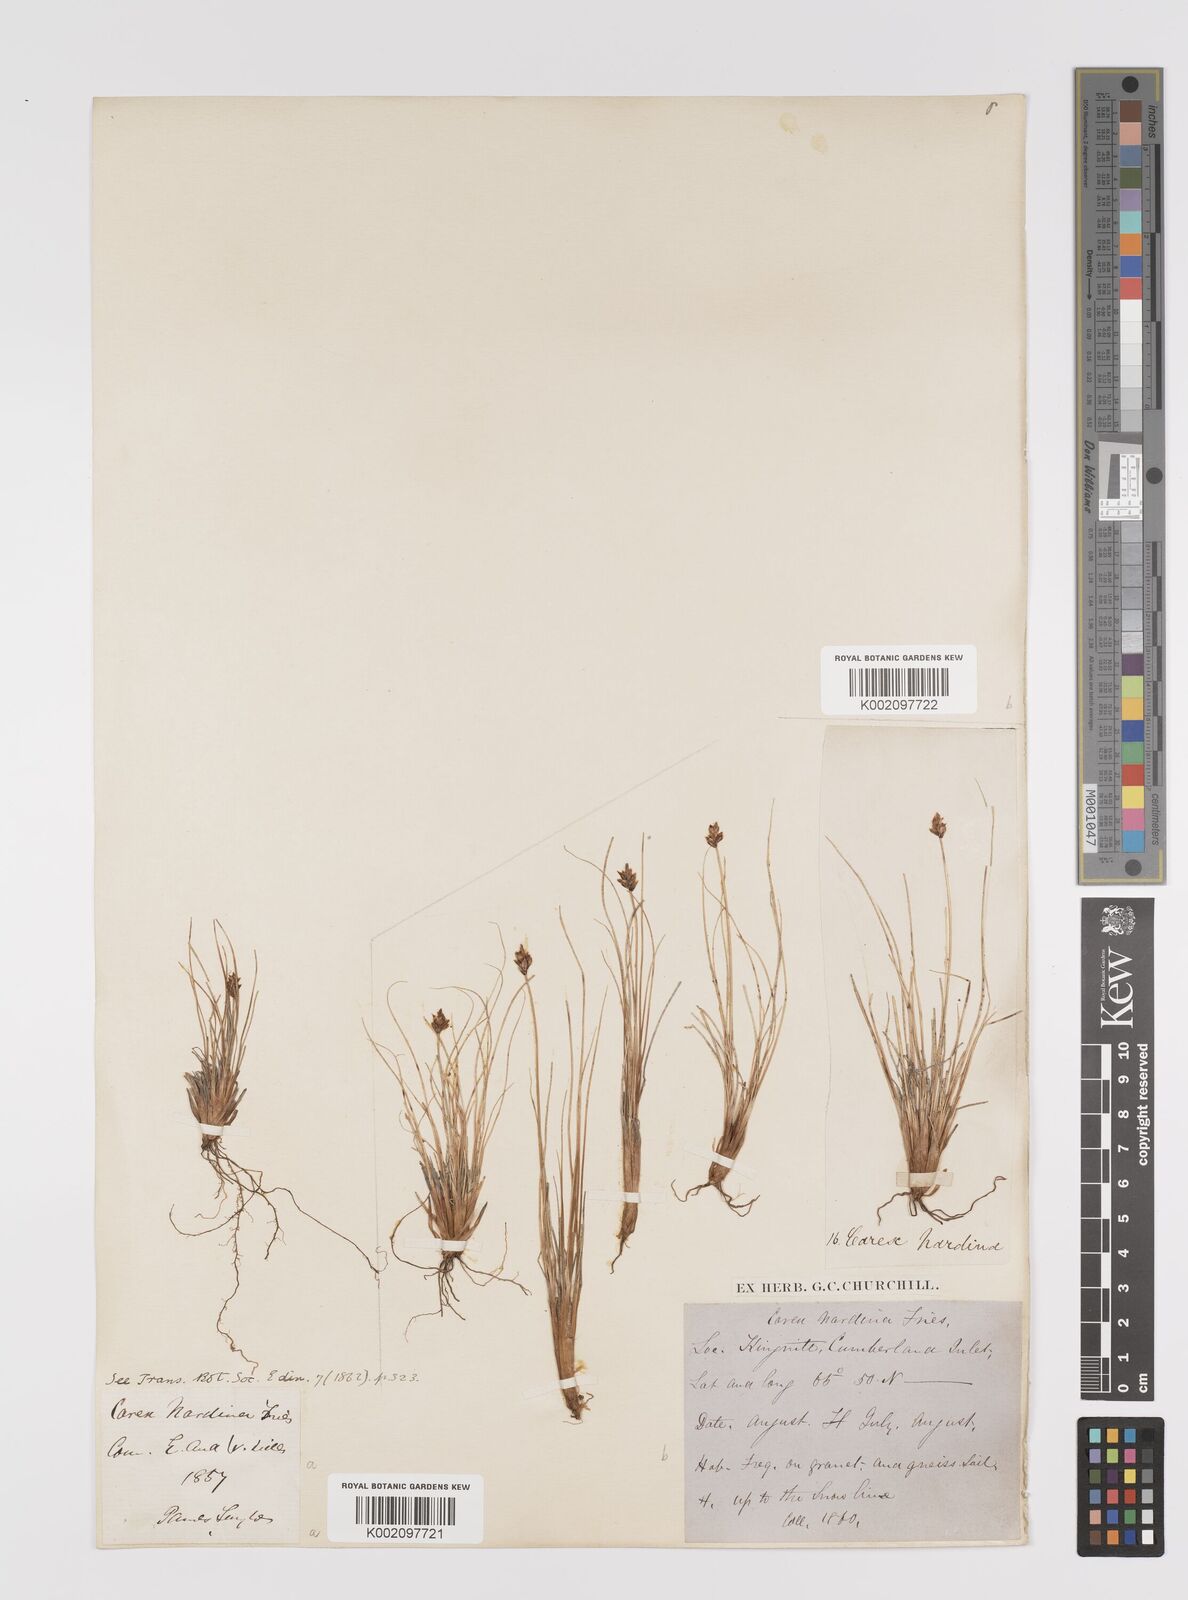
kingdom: Plantae
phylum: Tracheophyta
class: Liliopsida
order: Poales
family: Cyperaceae
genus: Carex
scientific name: Carex nardina
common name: Nard sedge
